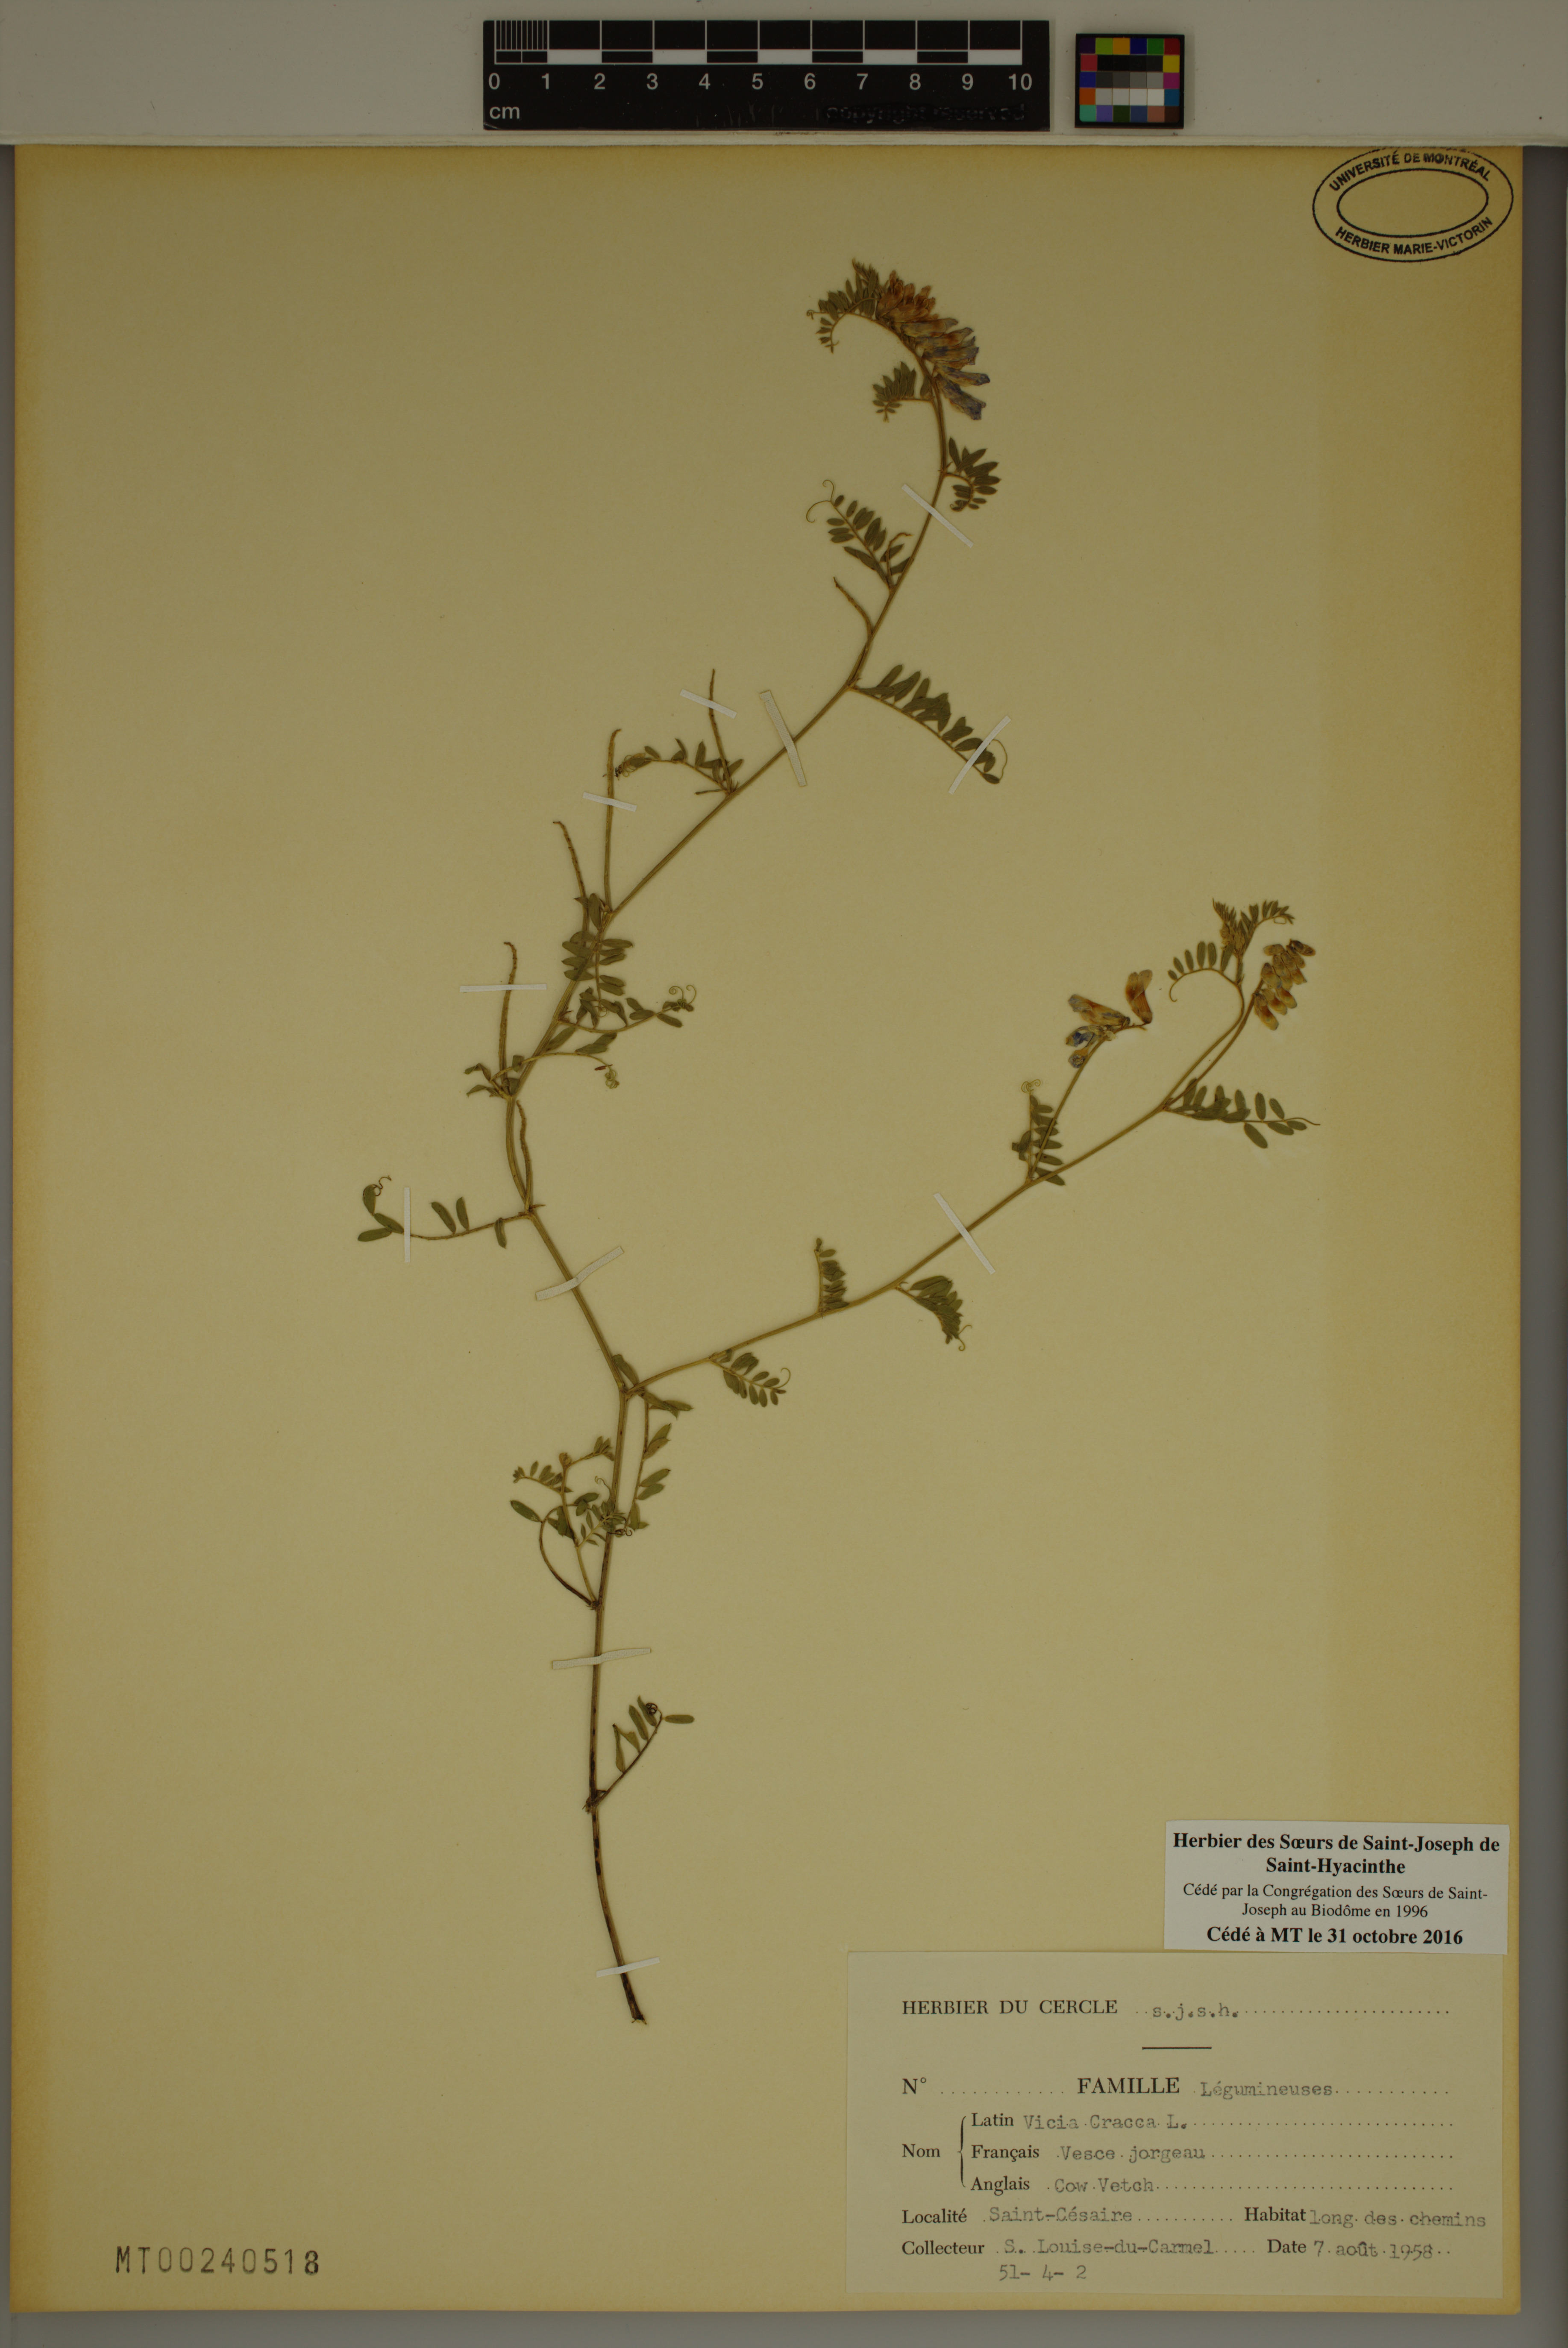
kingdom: Plantae
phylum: Tracheophyta
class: Magnoliopsida
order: Fabales
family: Fabaceae
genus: Vicia
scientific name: Vicia cracca
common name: Bird vetch
